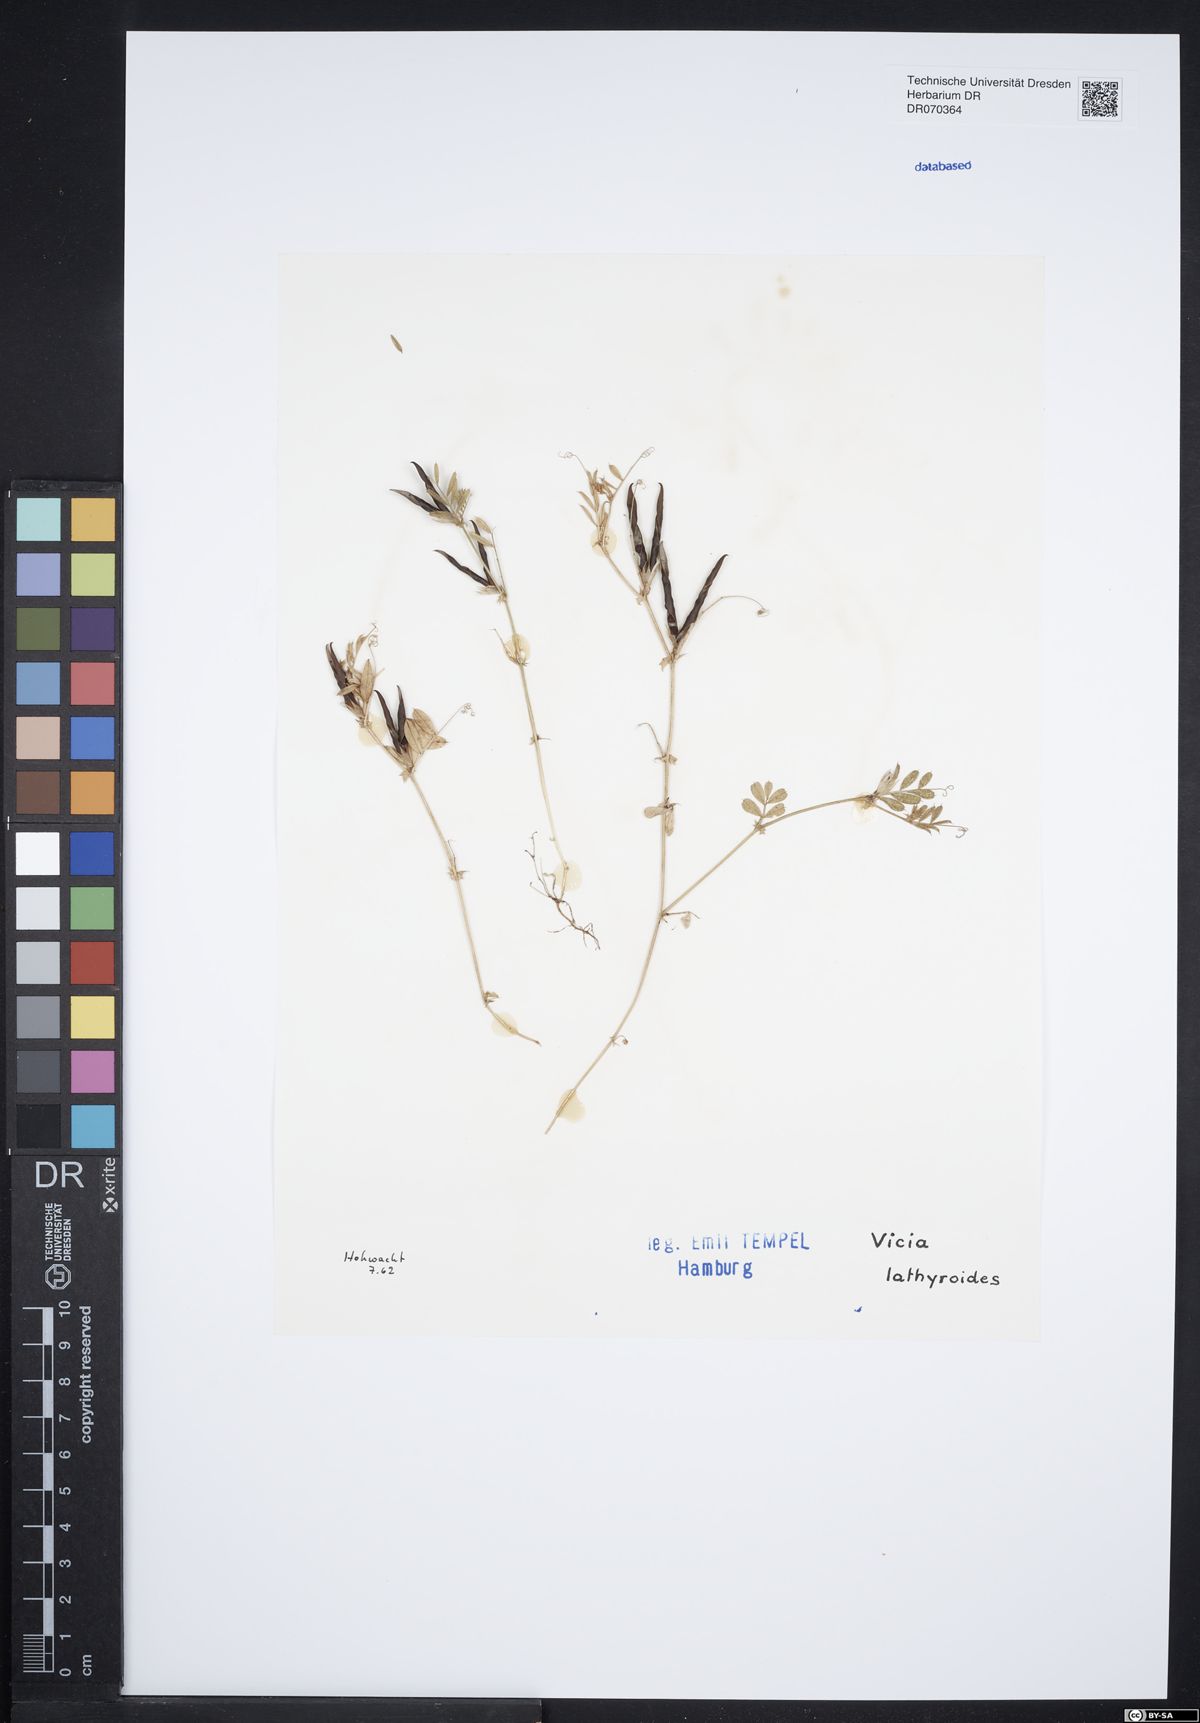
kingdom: Plantae
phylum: Tracheophyta
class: Magnoliopsida
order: Fabales
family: Fabaceae
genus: Vicia
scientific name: Vicia lathyroides
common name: Spring vetch
